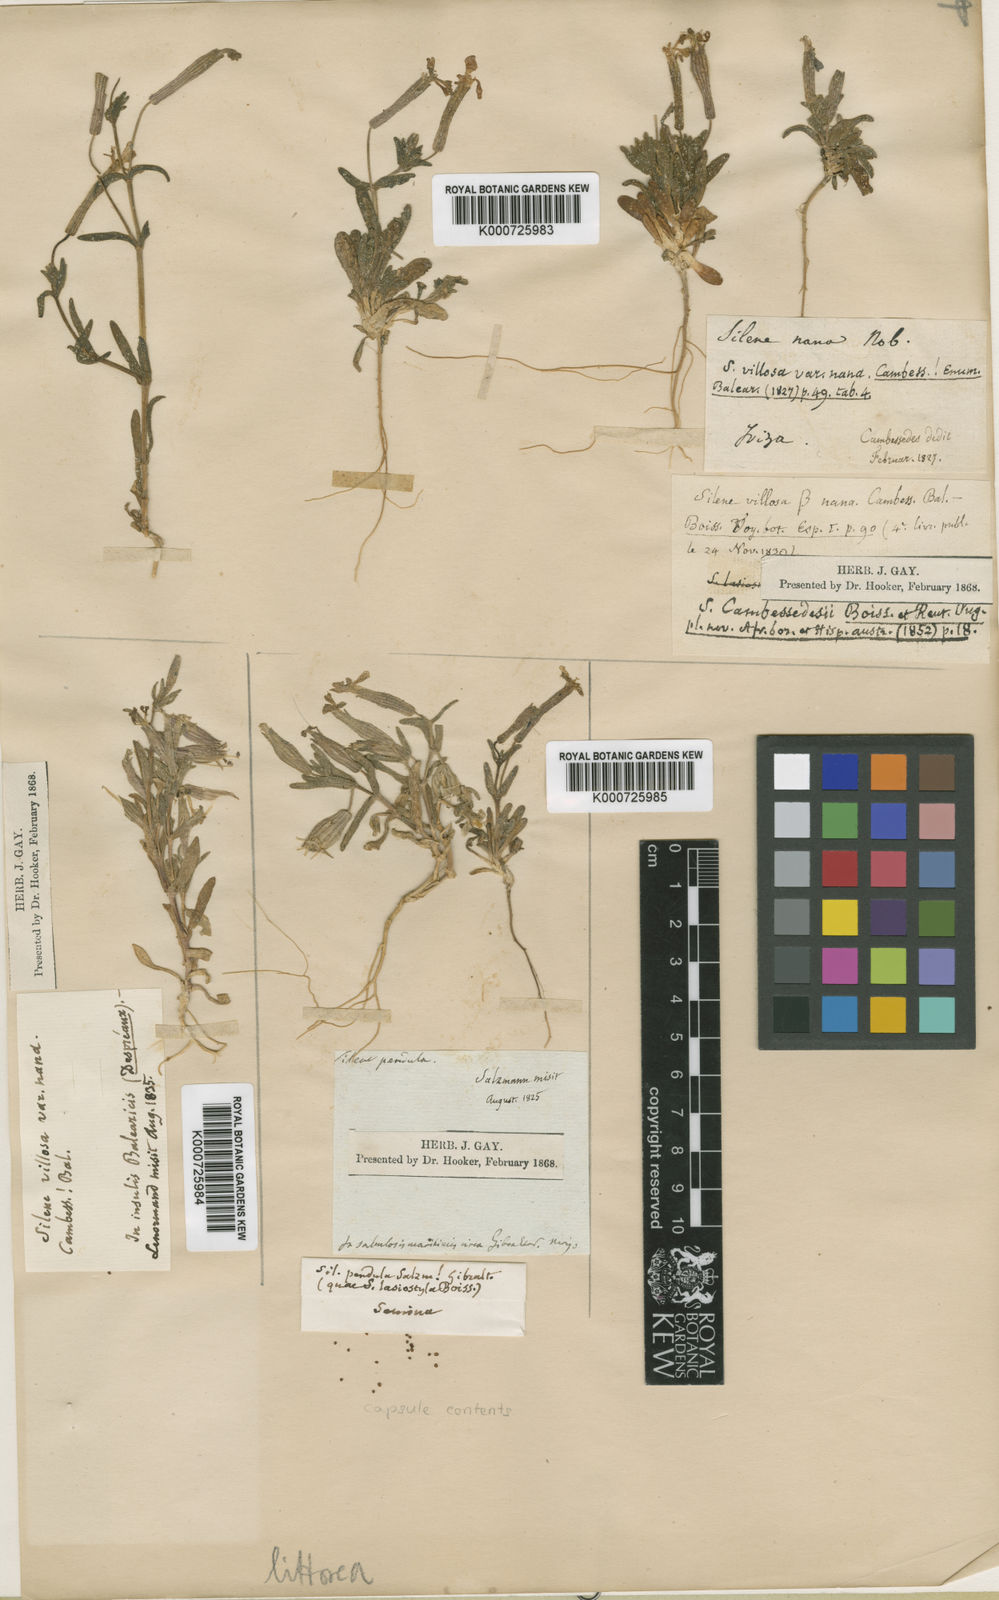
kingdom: Plantae
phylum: Tracheophyta
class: Magnoliopsida
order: Caryophyllales
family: Caryophyllaceae
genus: Silene
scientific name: Silene littorea
